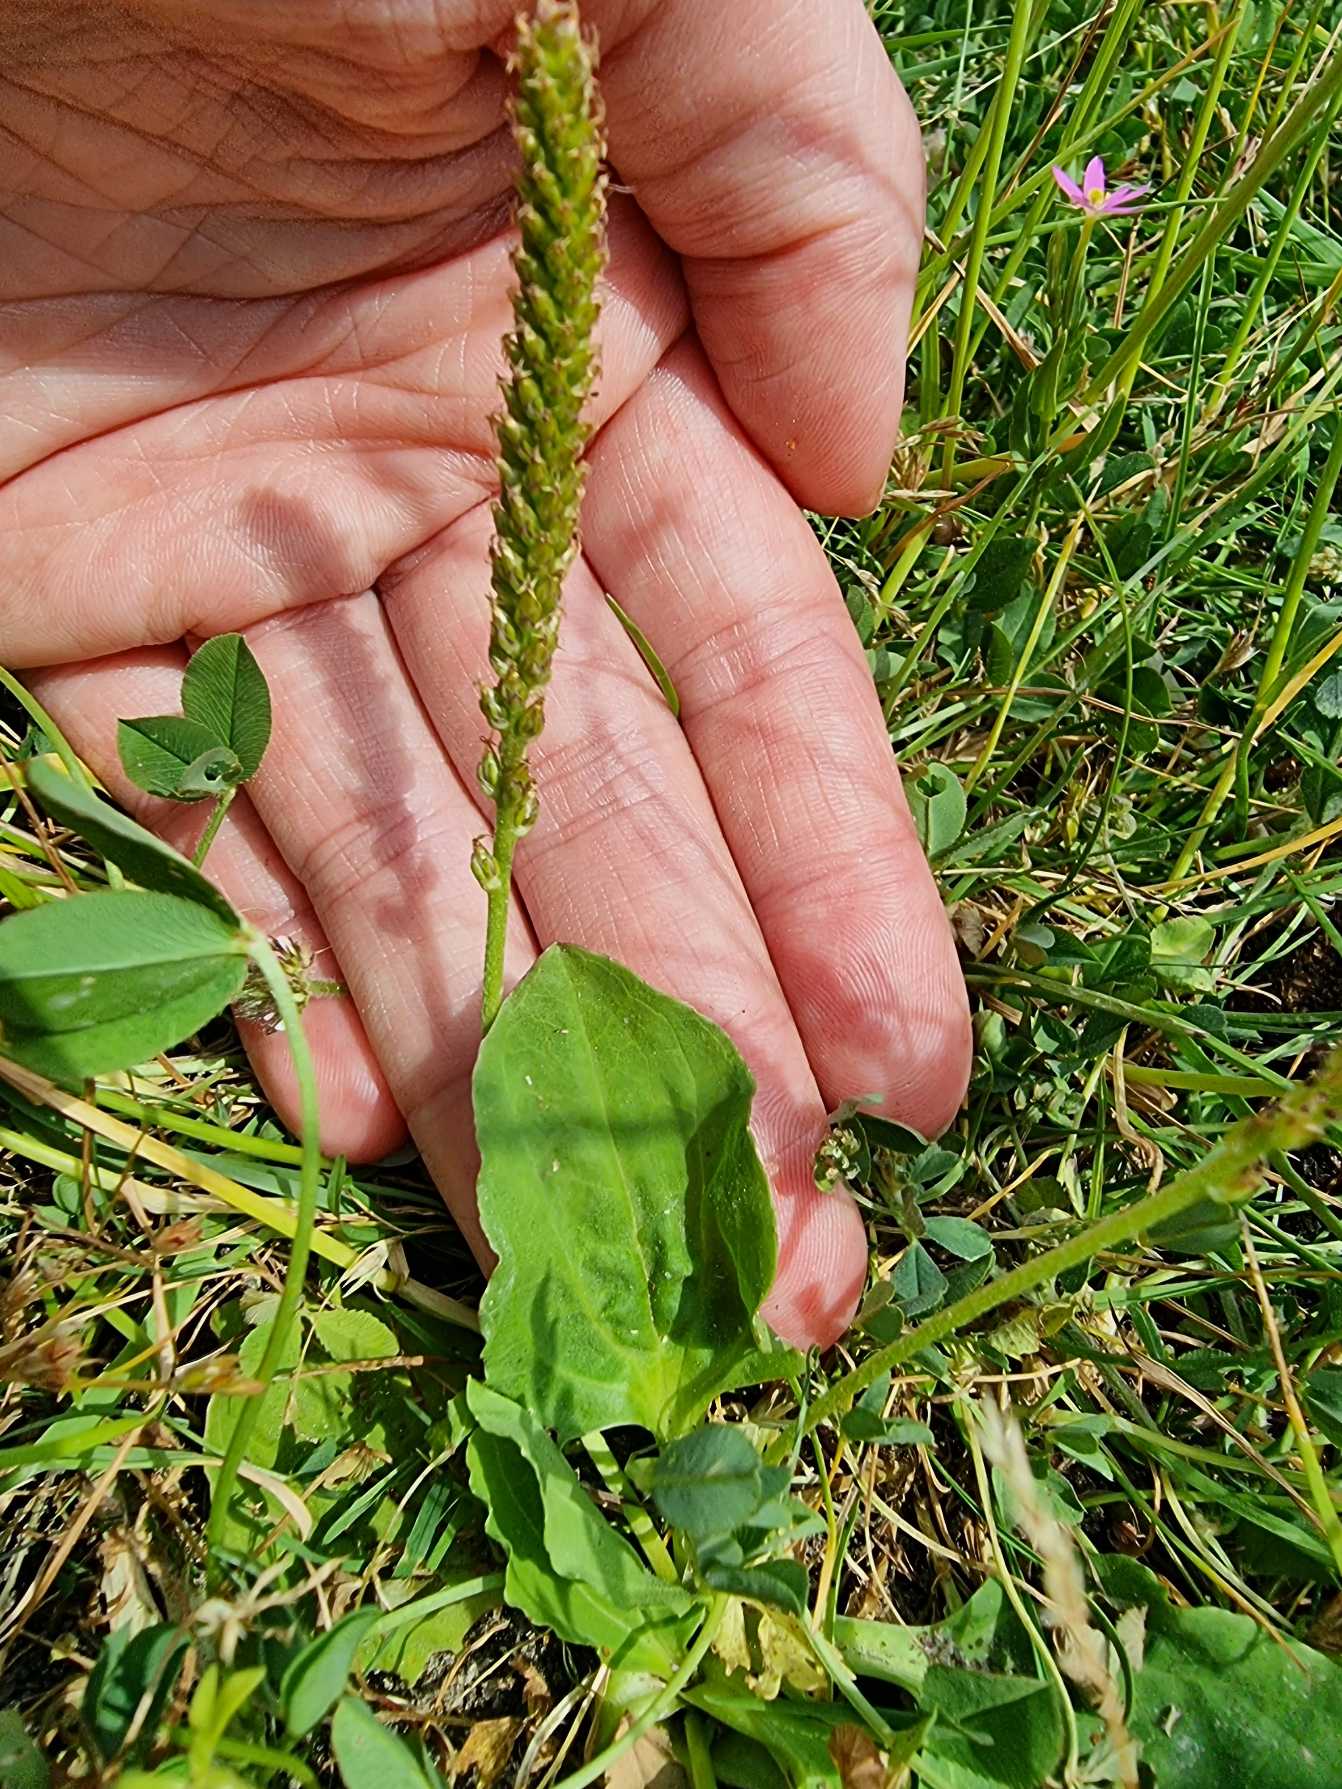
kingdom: Plantae
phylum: Tracheophyta
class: Magnoliopsida
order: Lamiales
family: Plantaginaceae
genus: Plantago
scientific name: Plantago major
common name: Glat vejbred
